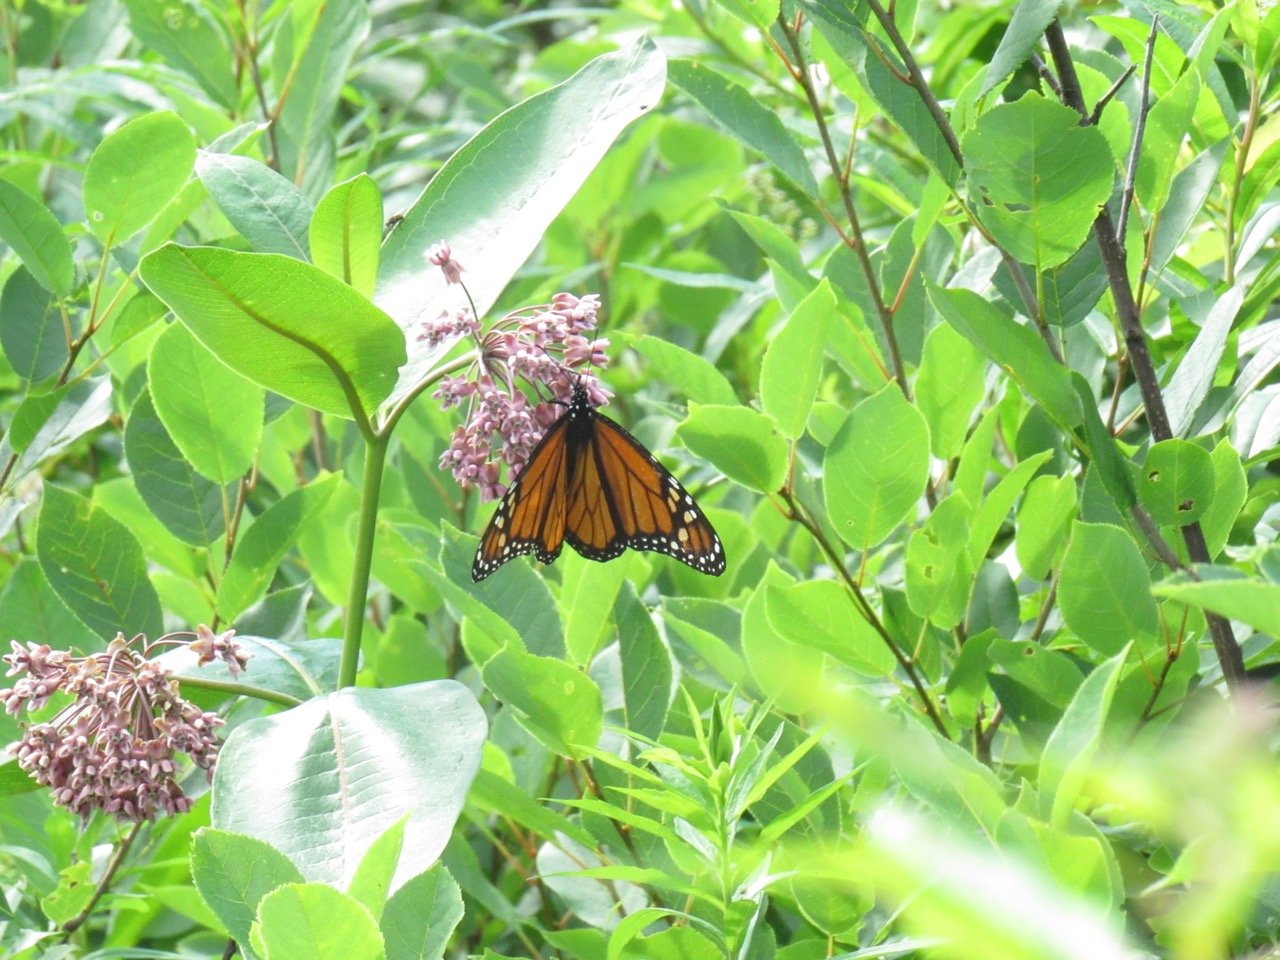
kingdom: Animalia
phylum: Arthropoda
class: Insecta
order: Lepidoptera
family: Nymphalidae
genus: Danaus
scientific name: Danaus plexippus
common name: Monarch
